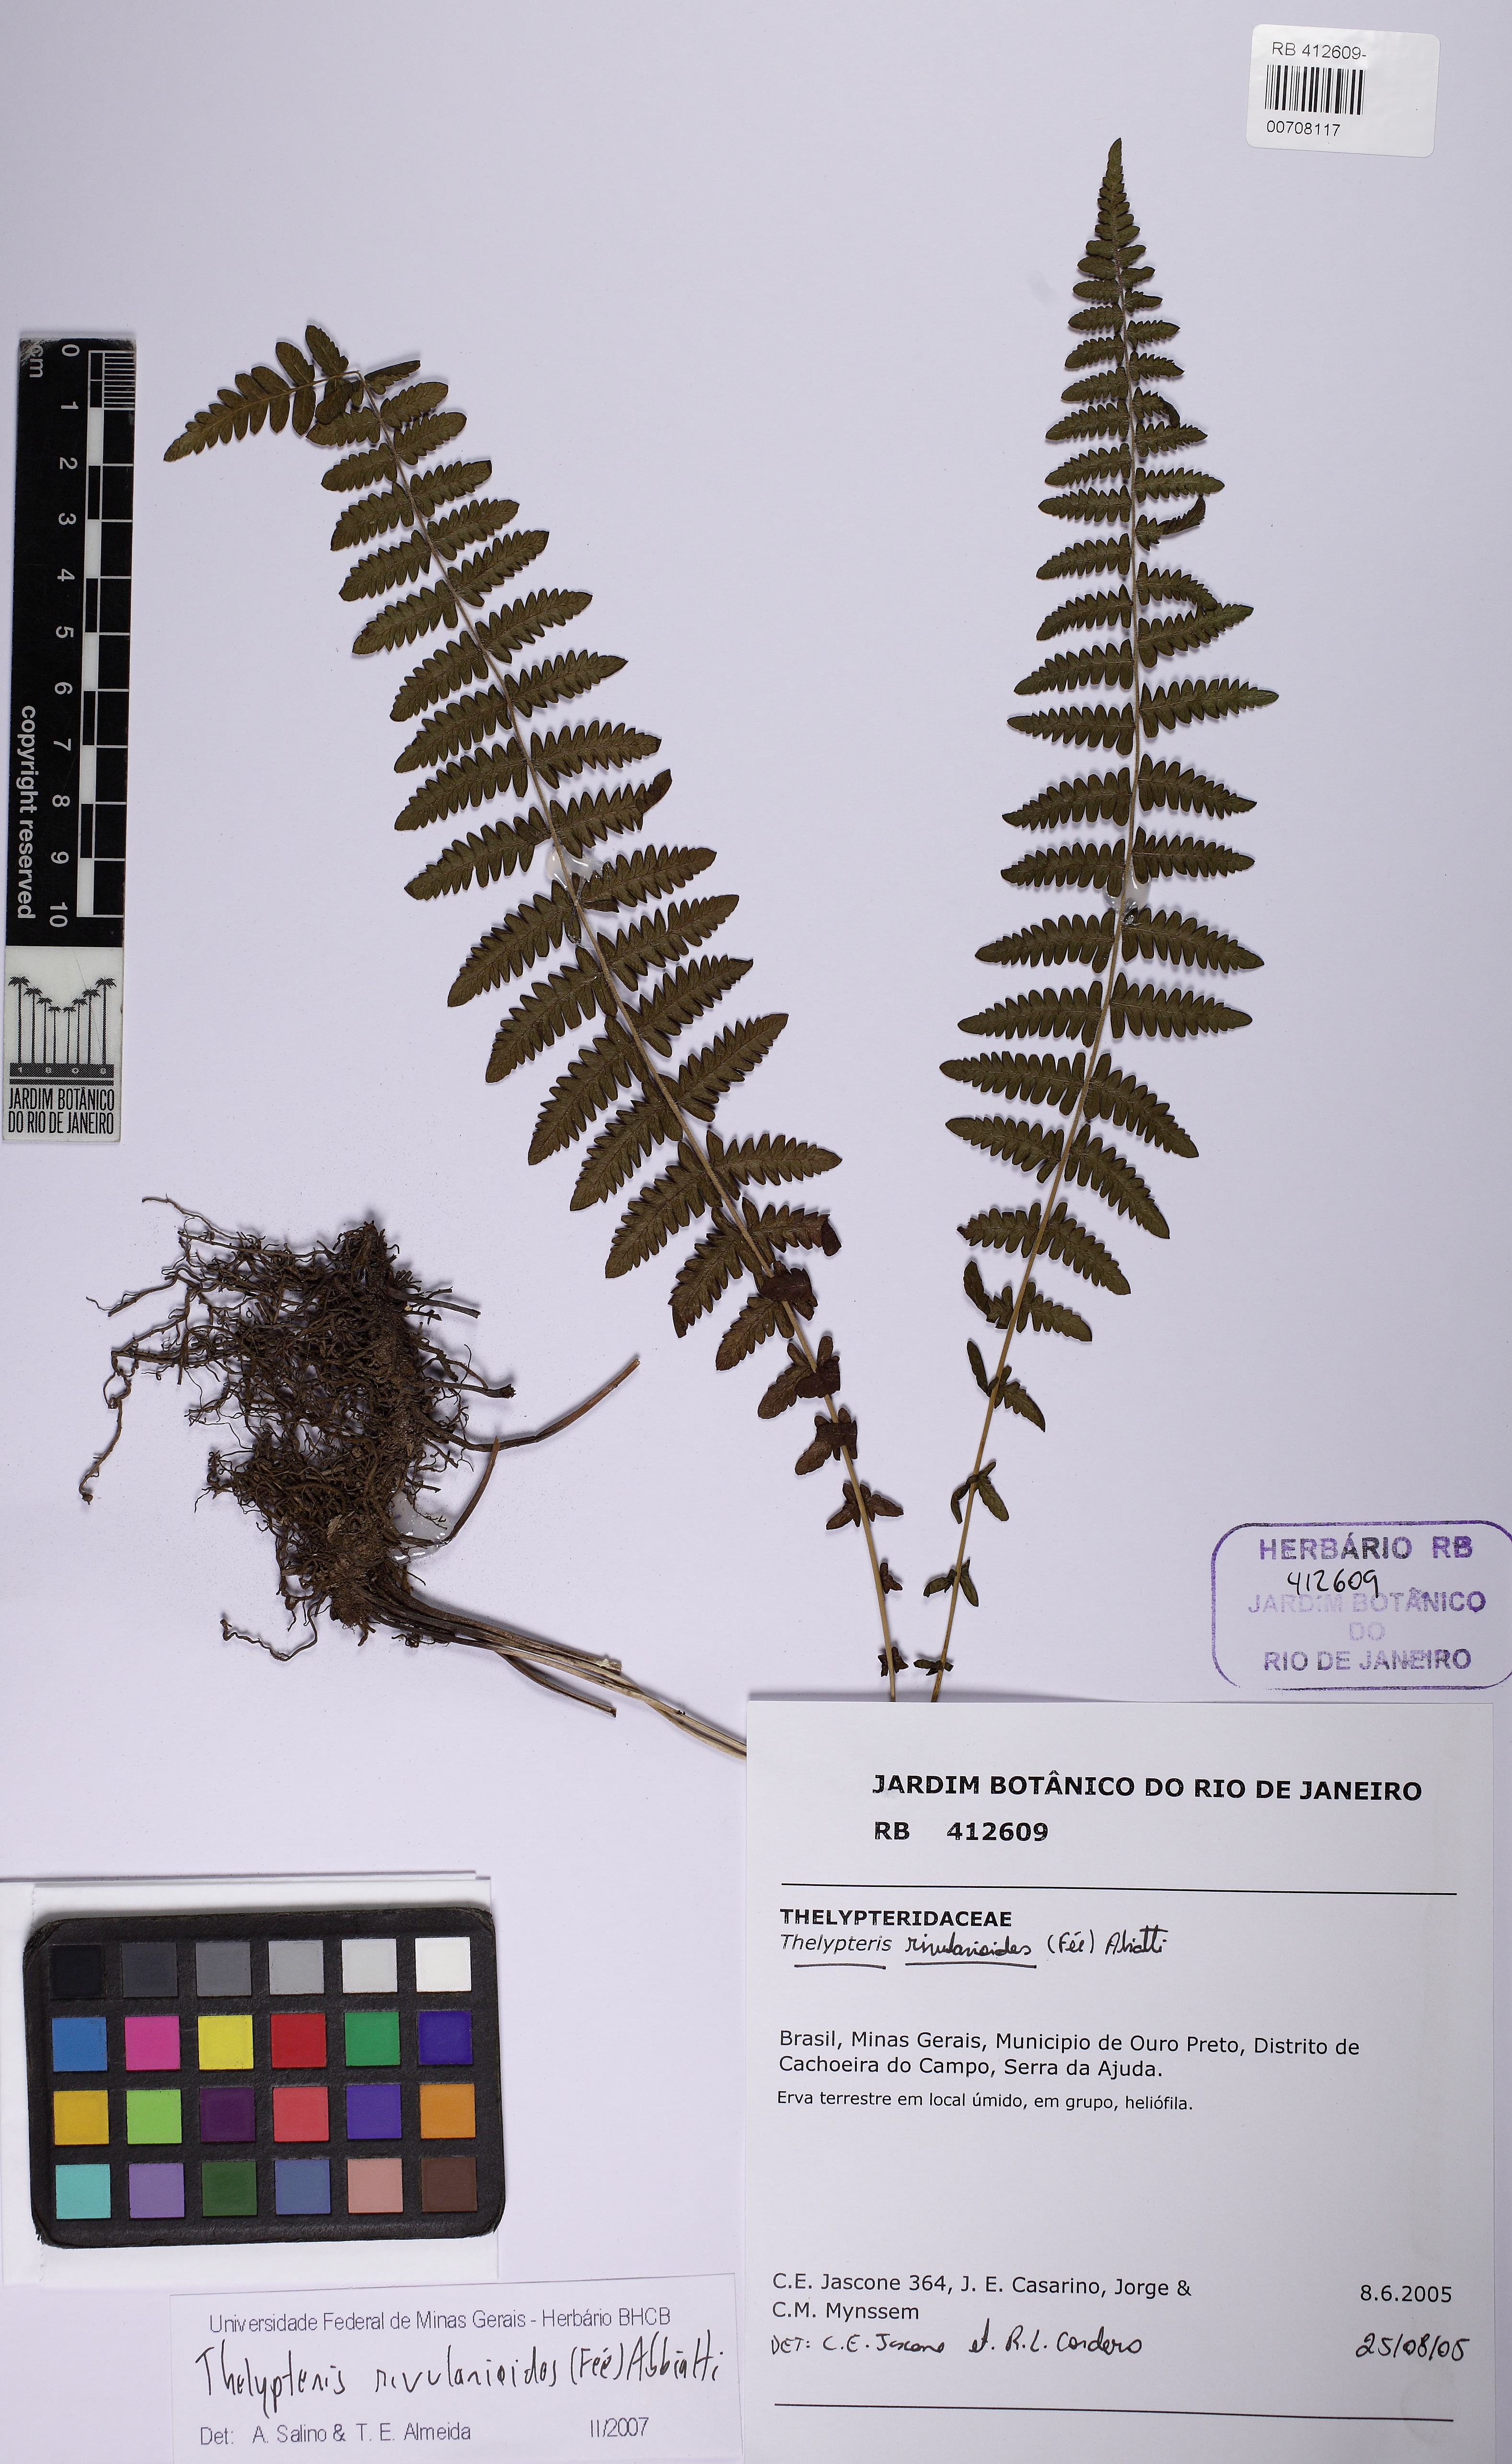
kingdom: Plantae
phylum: Tracheophyta
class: Polypodiopsida
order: Polypodiales
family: Thelypteridaceae
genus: Amauropelta
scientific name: Amauropelta rivularioides
